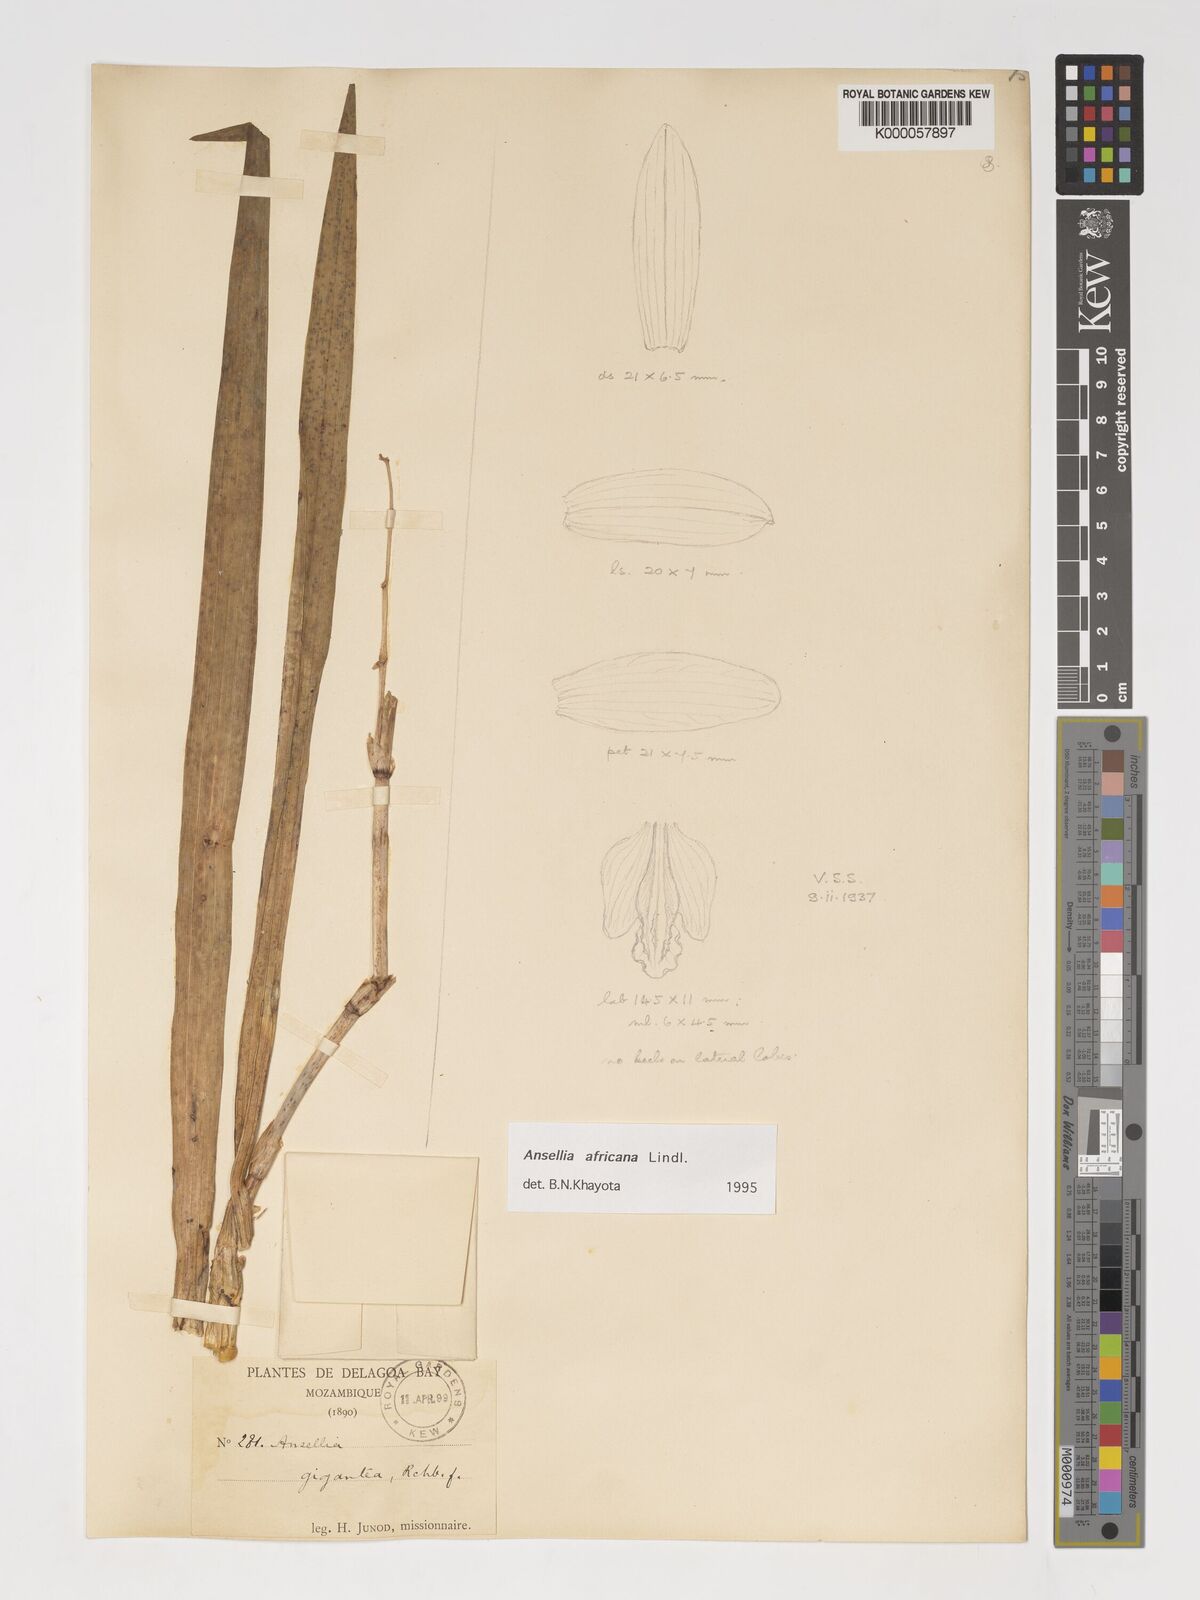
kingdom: Plantae
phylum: Tracheophyta
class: Liliopsida
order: Asparagales
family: Orchidaceae
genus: Ansellia
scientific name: Ansellia africana
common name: African ansellia
